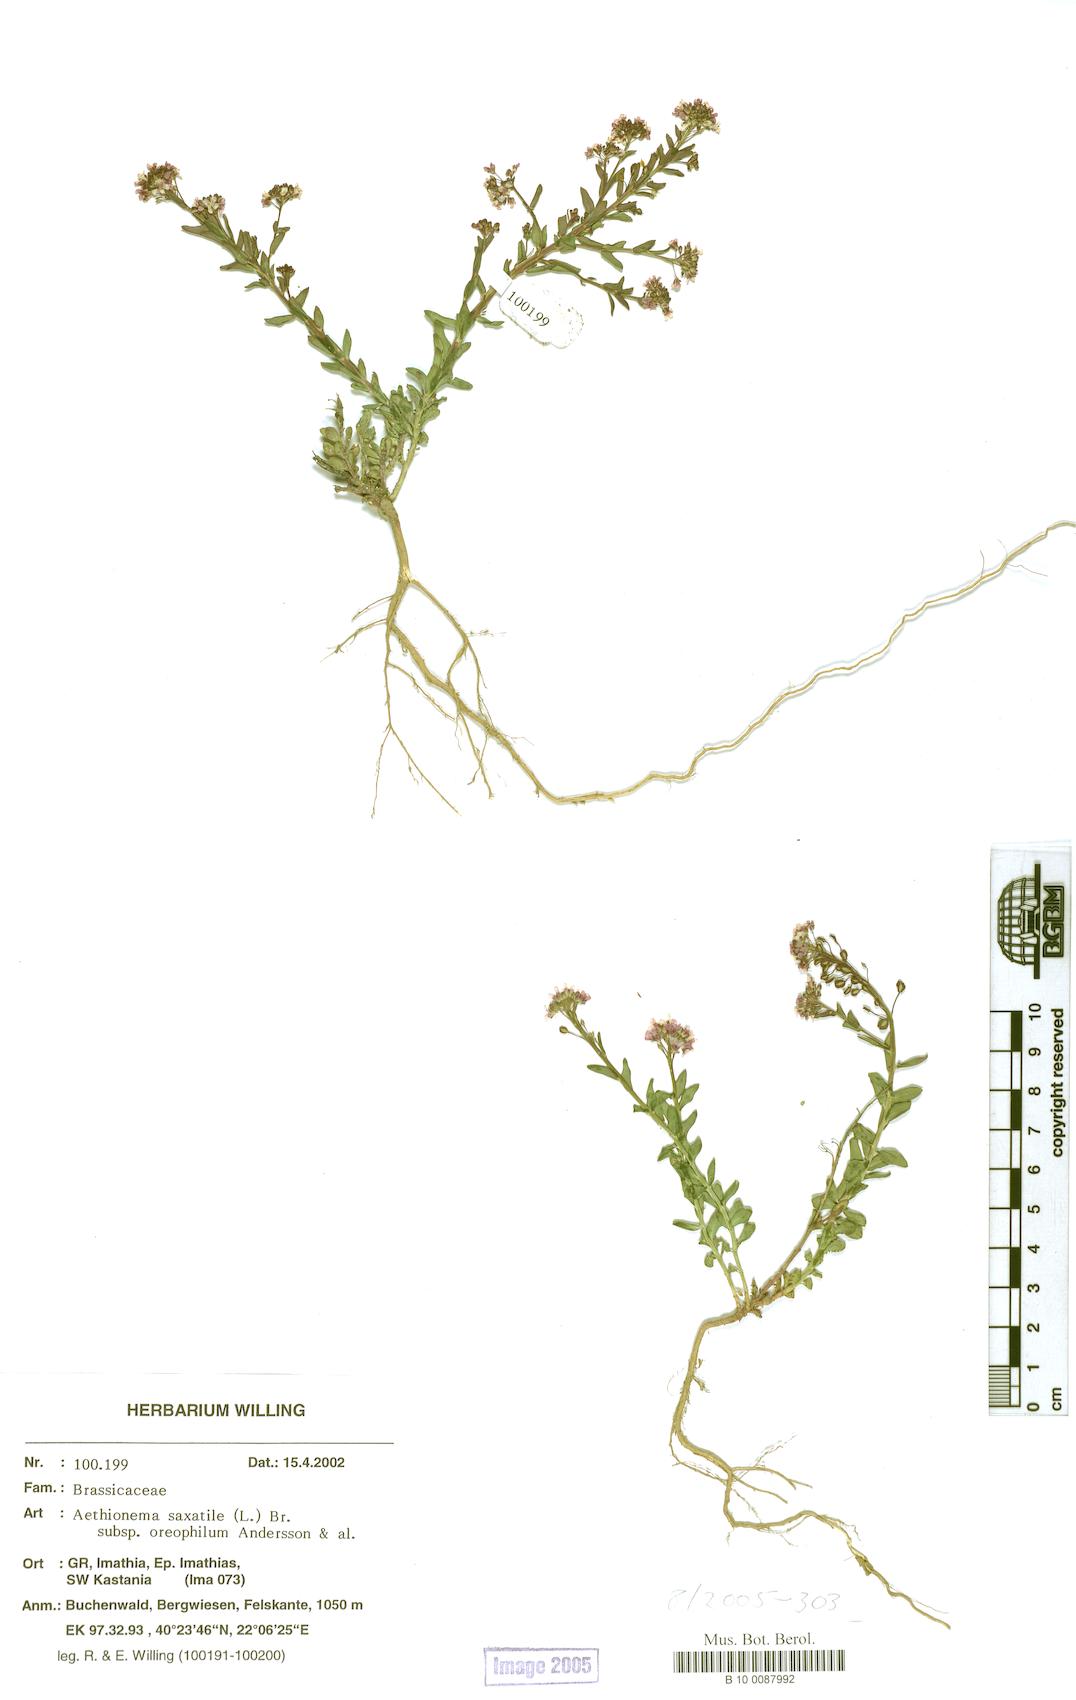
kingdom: Plantae
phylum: Tracheophyta
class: Magnoliopsida
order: Brassicales
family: Brassicaceae
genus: Aethionema
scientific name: Aethionema saxatile
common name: Burnt candytuft
